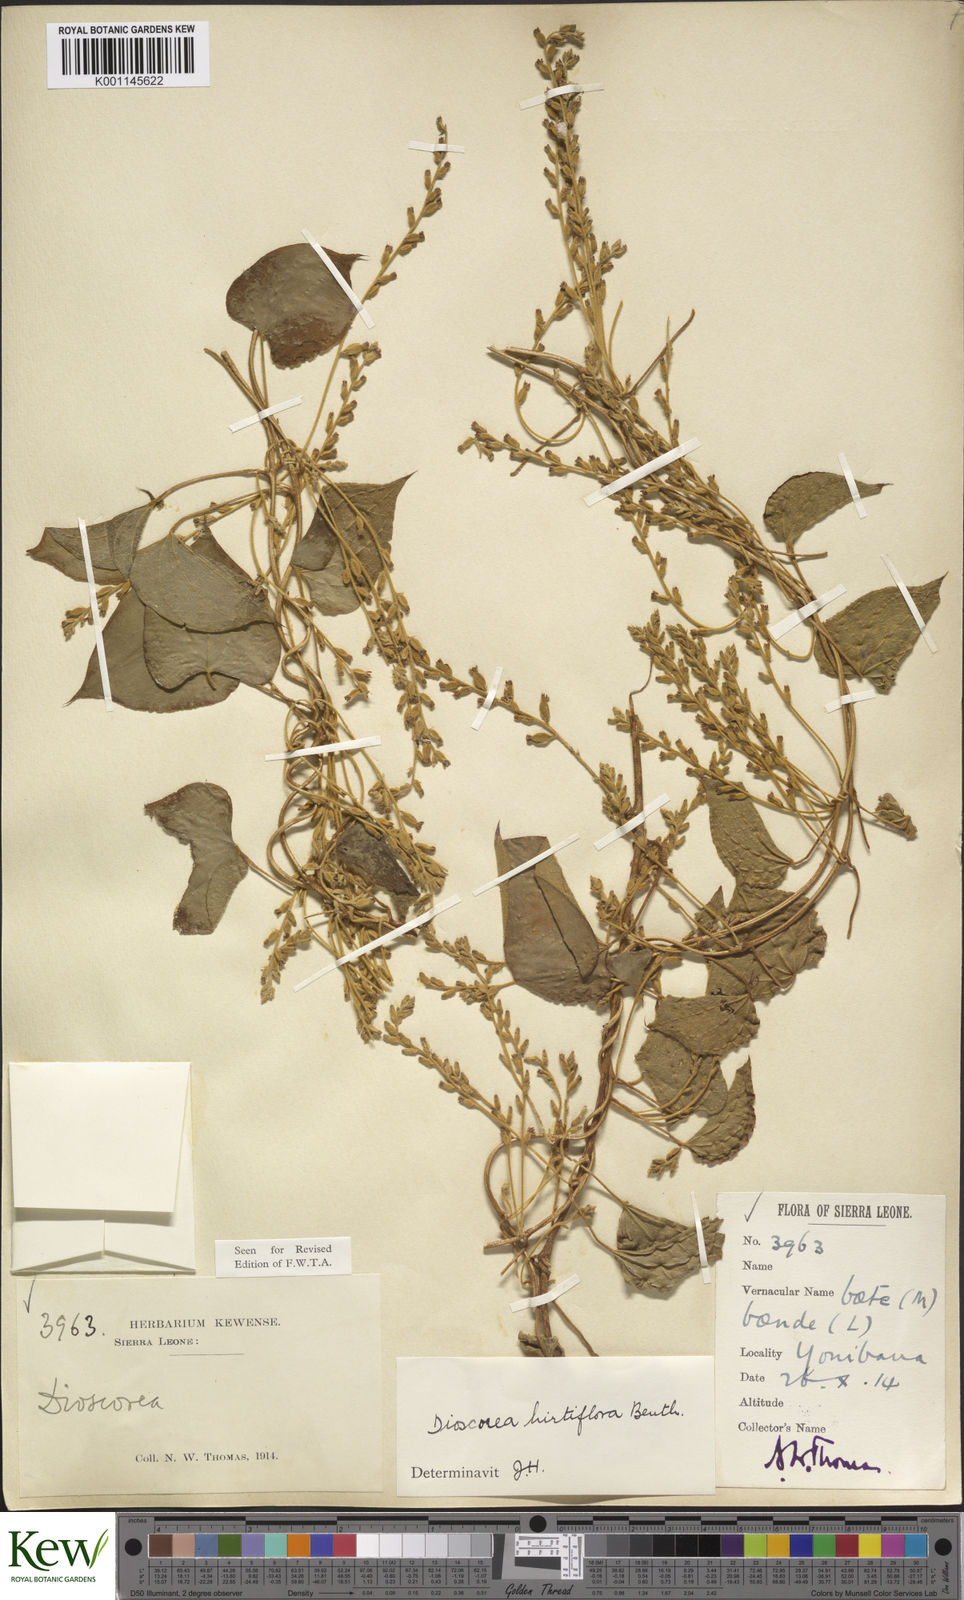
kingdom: Plantae
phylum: Tracheophyta
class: Liliopsida
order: Dioscoreales
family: Dioscoreaceae
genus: Dioscorea
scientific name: Dioscorea hirtiflora
